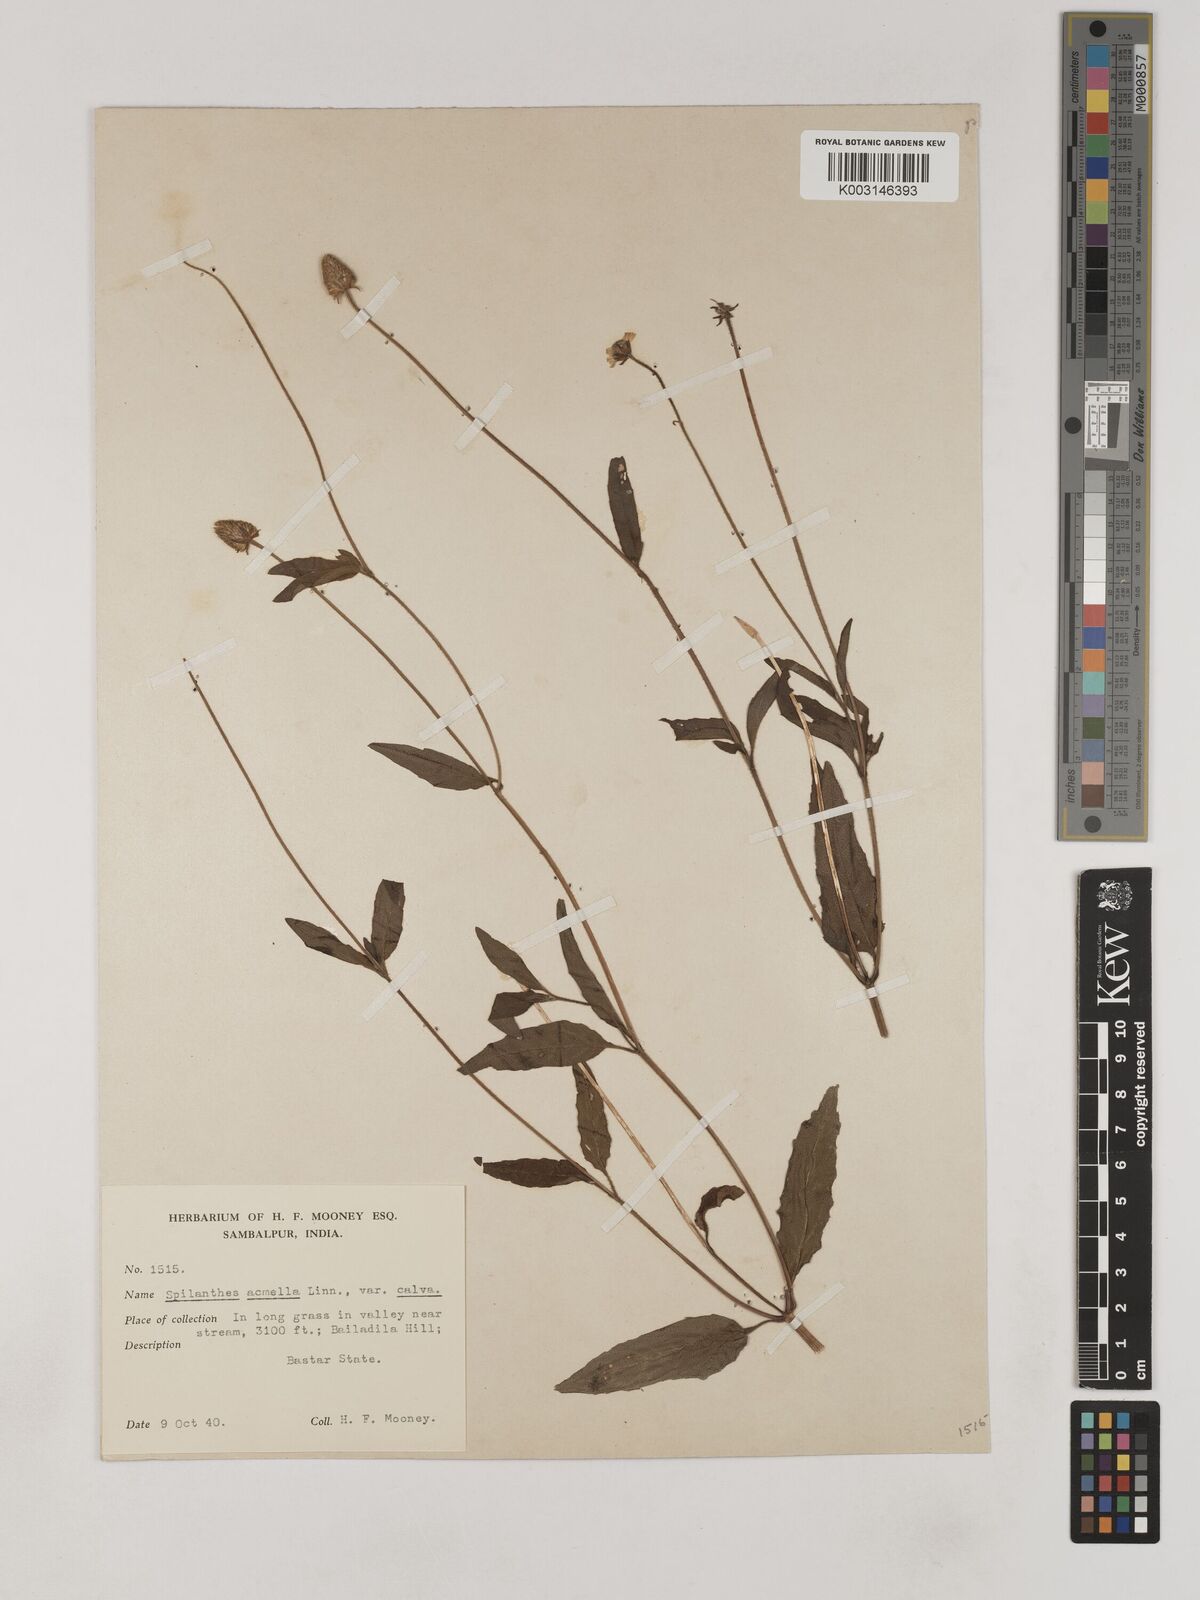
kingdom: Plantae
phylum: Tracheophyta
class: Magnoliopsida
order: Asterales
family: Asteraceae
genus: Acmella
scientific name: Acmella calva
